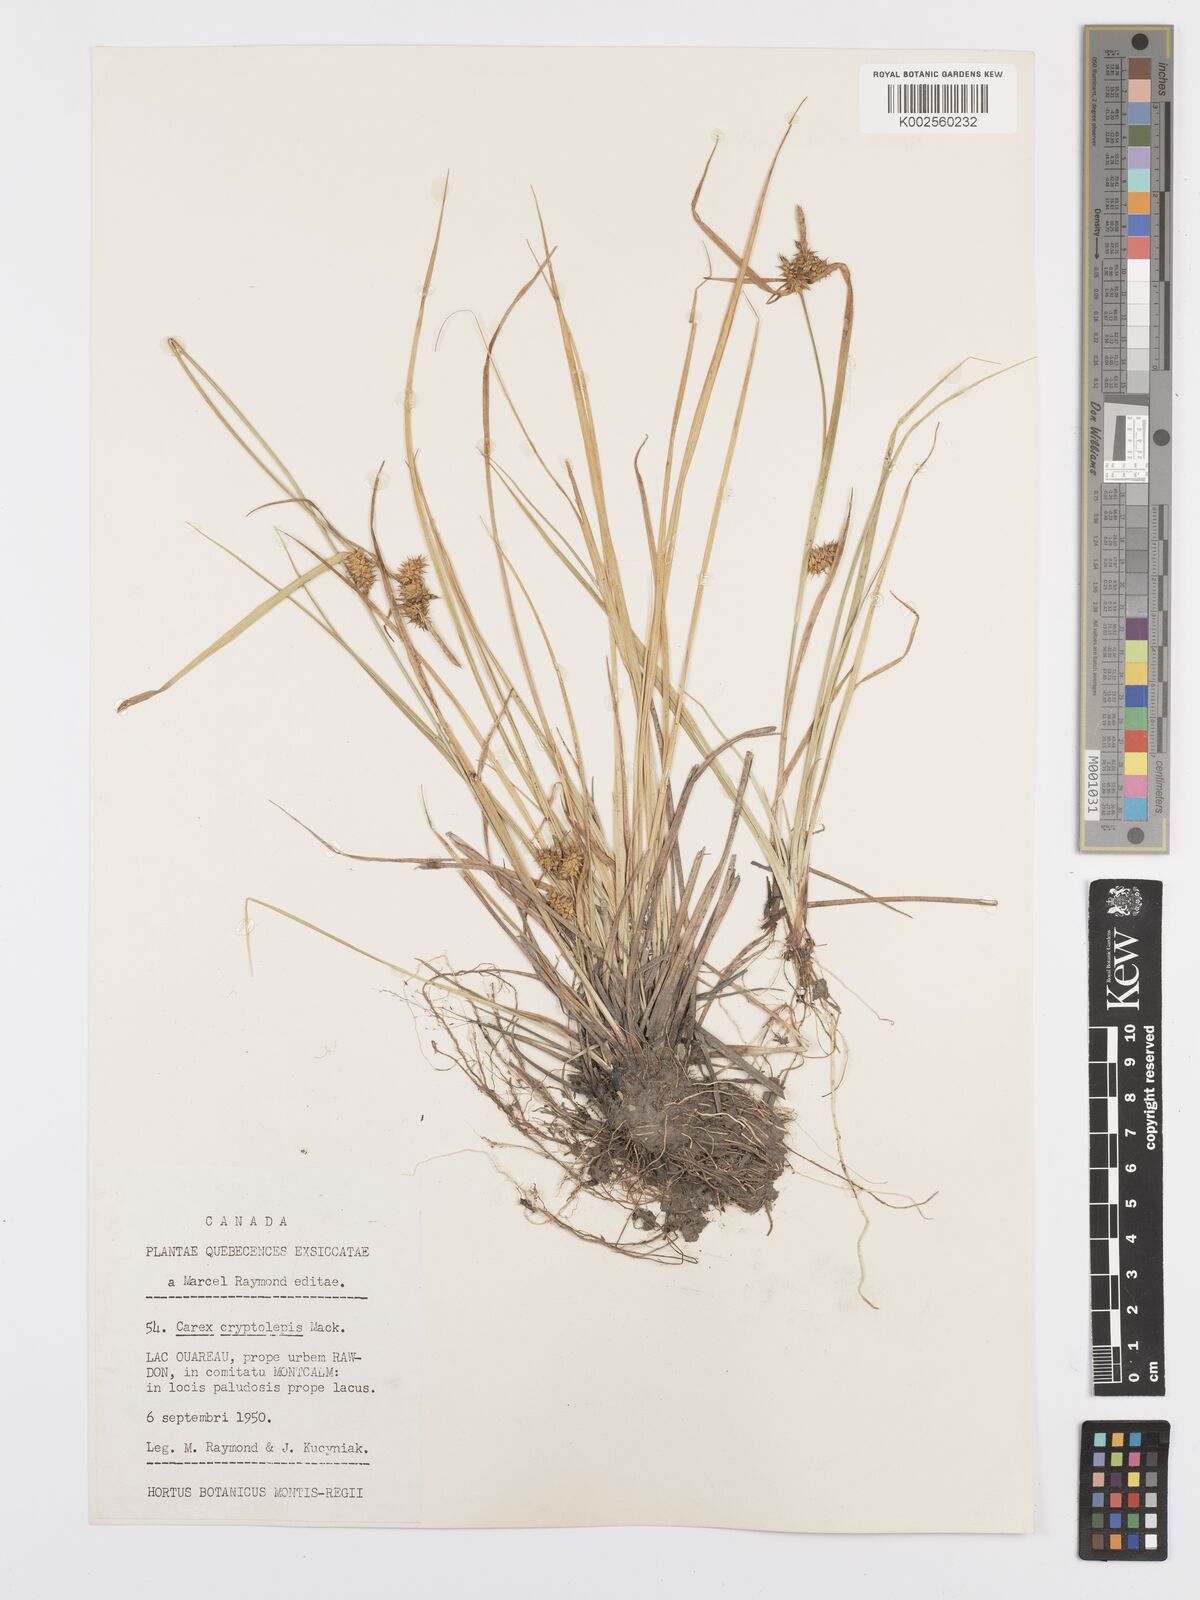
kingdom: Plantae
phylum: Tracheophyta
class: Liliopsida
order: Poales
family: Cyperaceae
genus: Carex
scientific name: Carex cryptolepis
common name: Northeastern sedge
